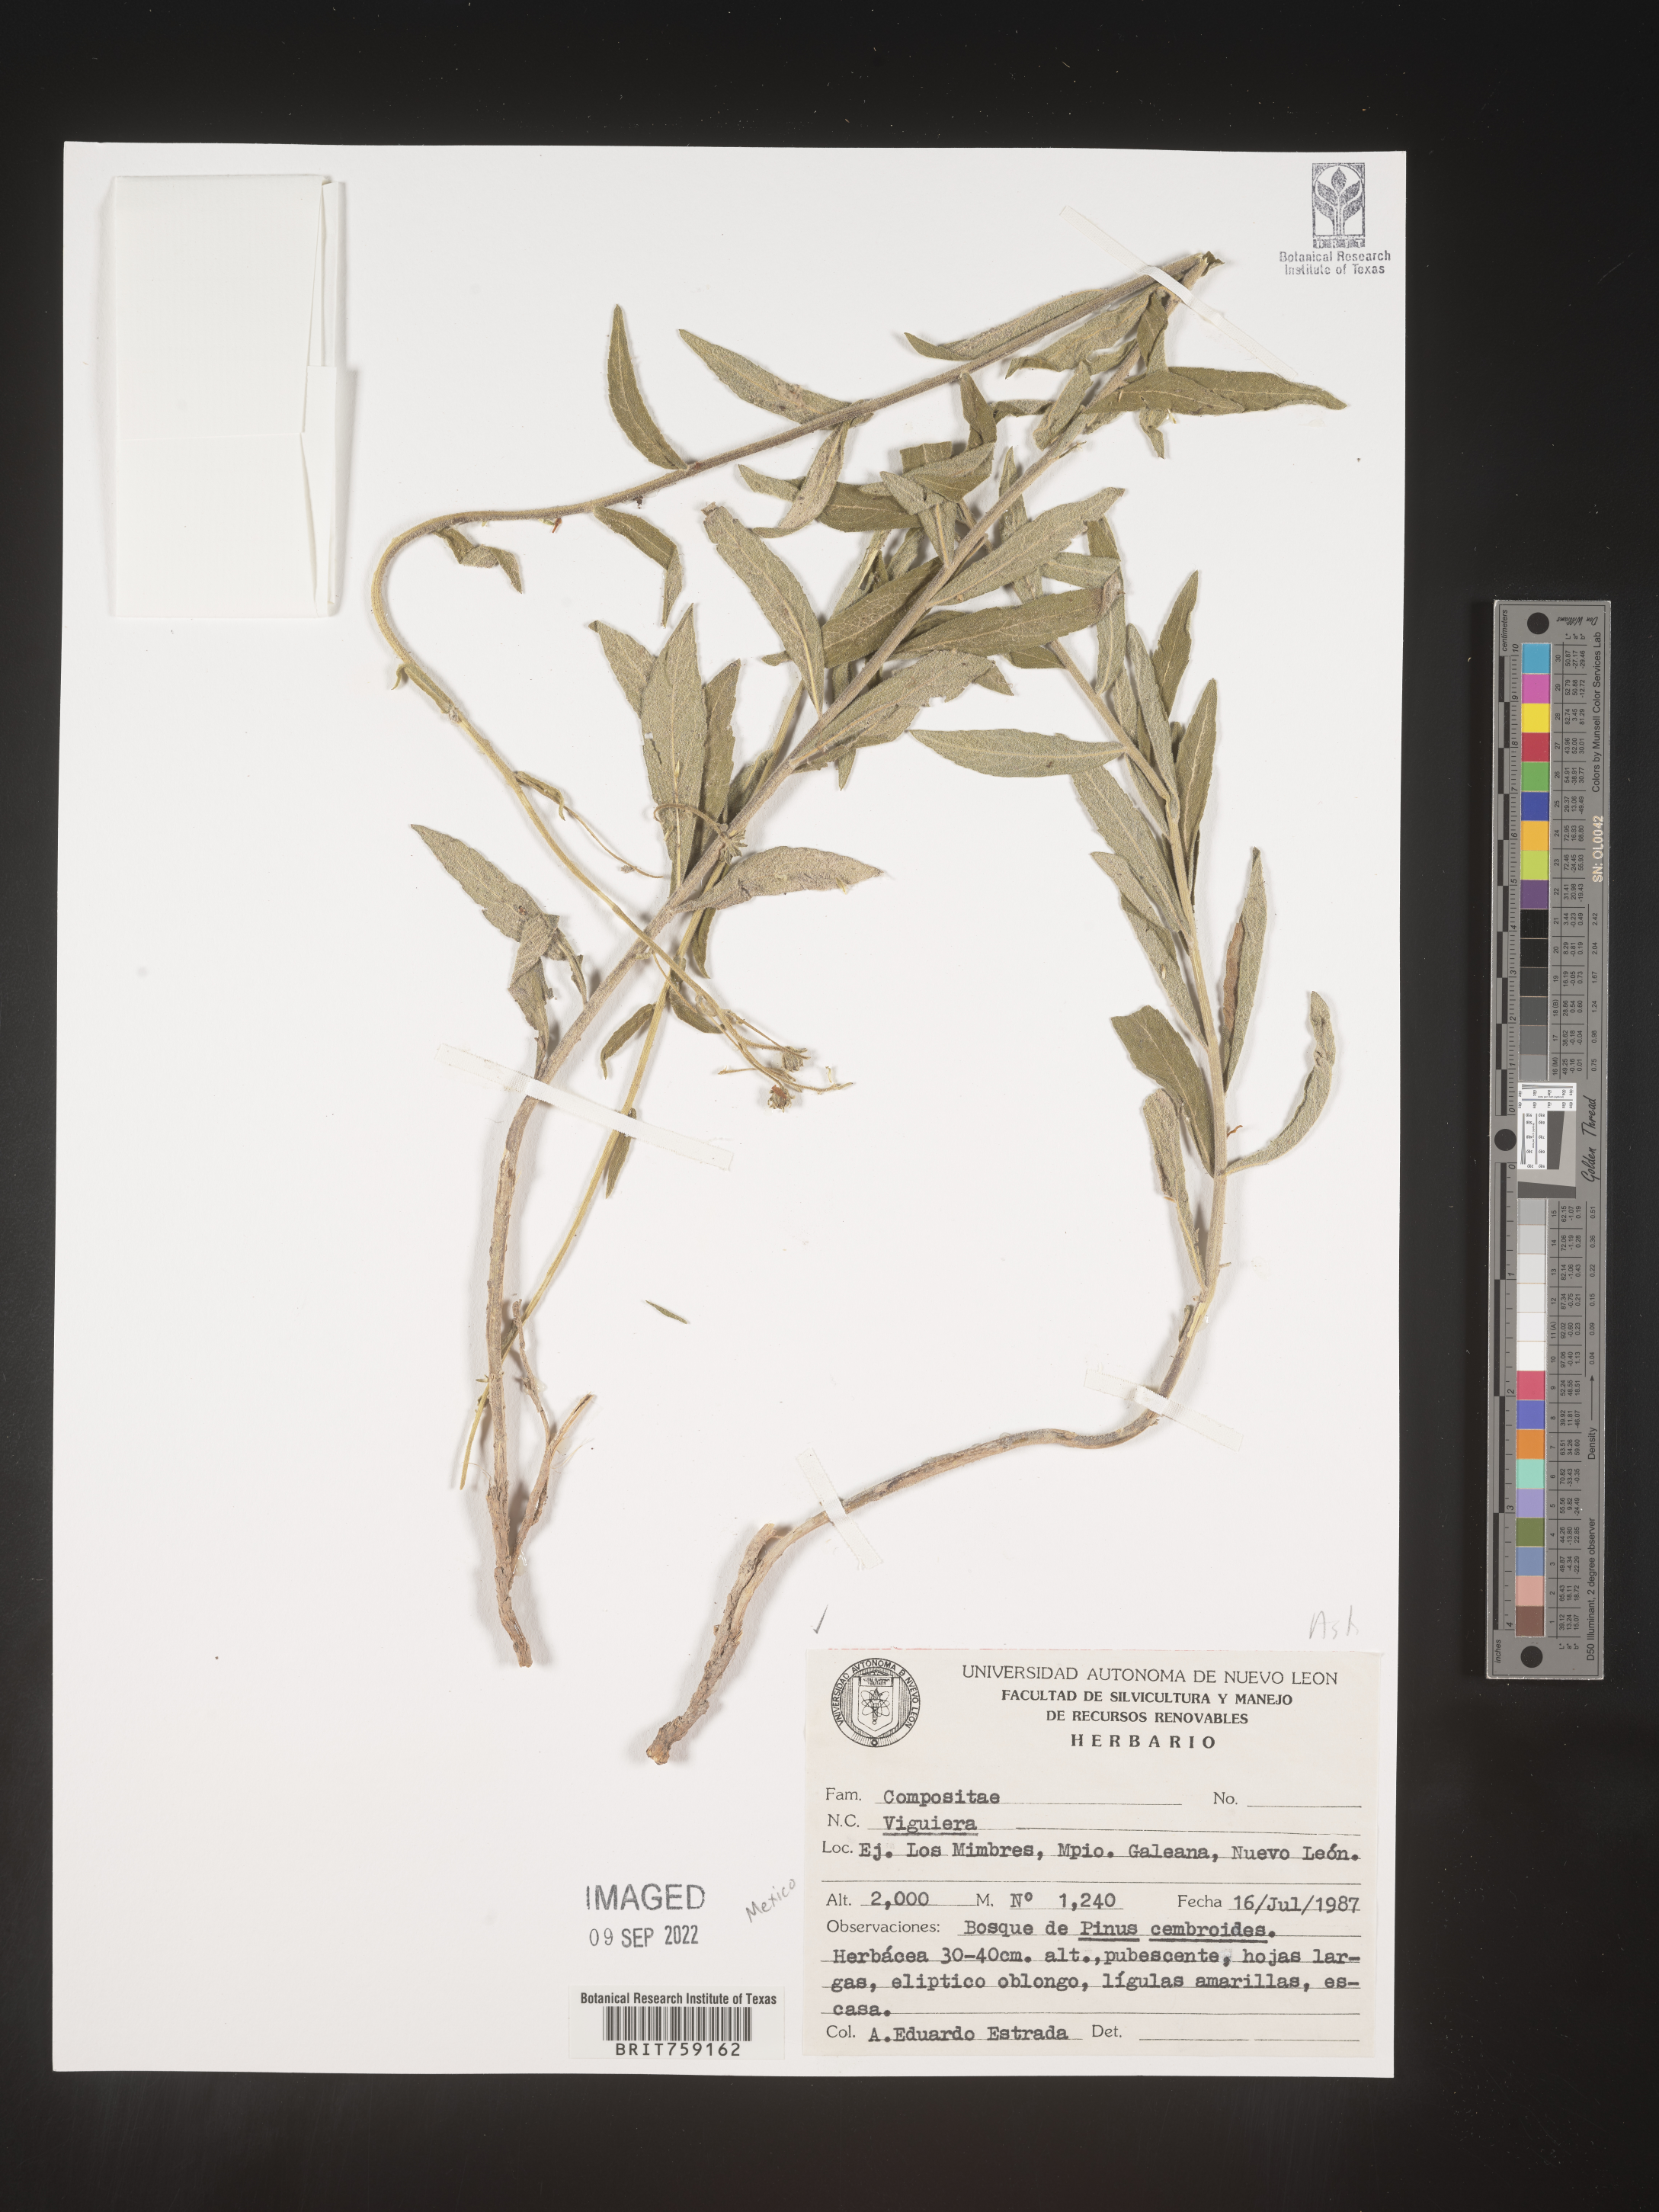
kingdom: Plantae
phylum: Tracheophyta
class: Magnoliopsida
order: Asterales
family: Asteraceae
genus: Viguiera
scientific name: Viguiera
